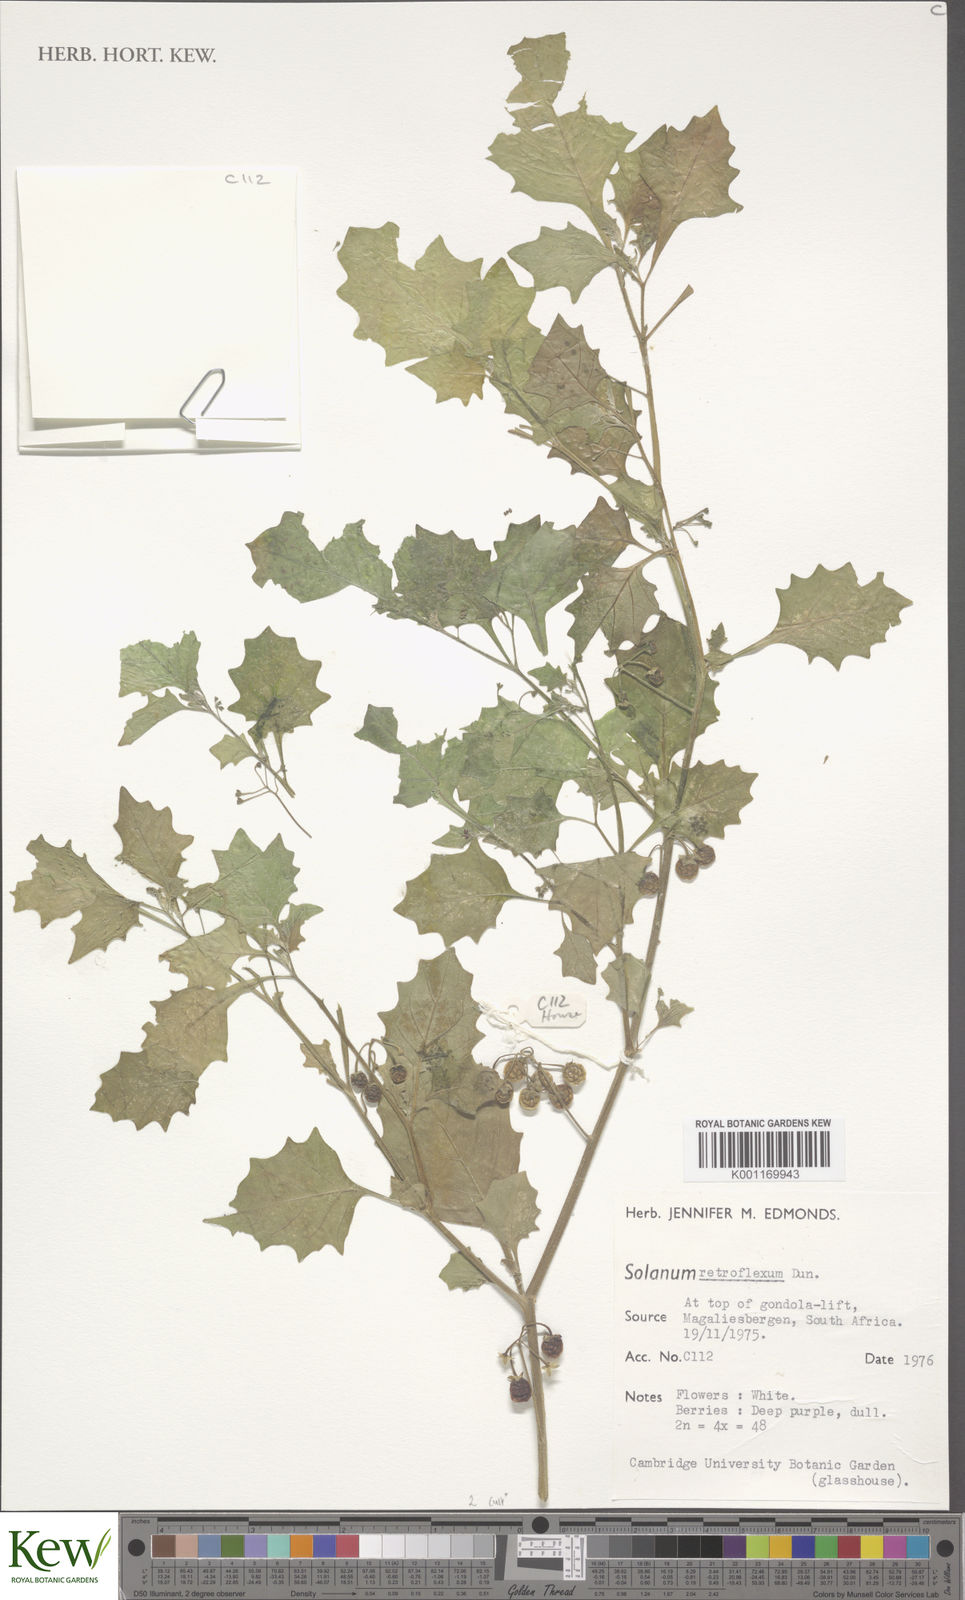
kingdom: Plantae
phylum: Tracheophyta
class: Magnoliopsida
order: Solanales
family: Solanaceae
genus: Solanum
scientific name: Solanum retroflexum
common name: Wonderberry
